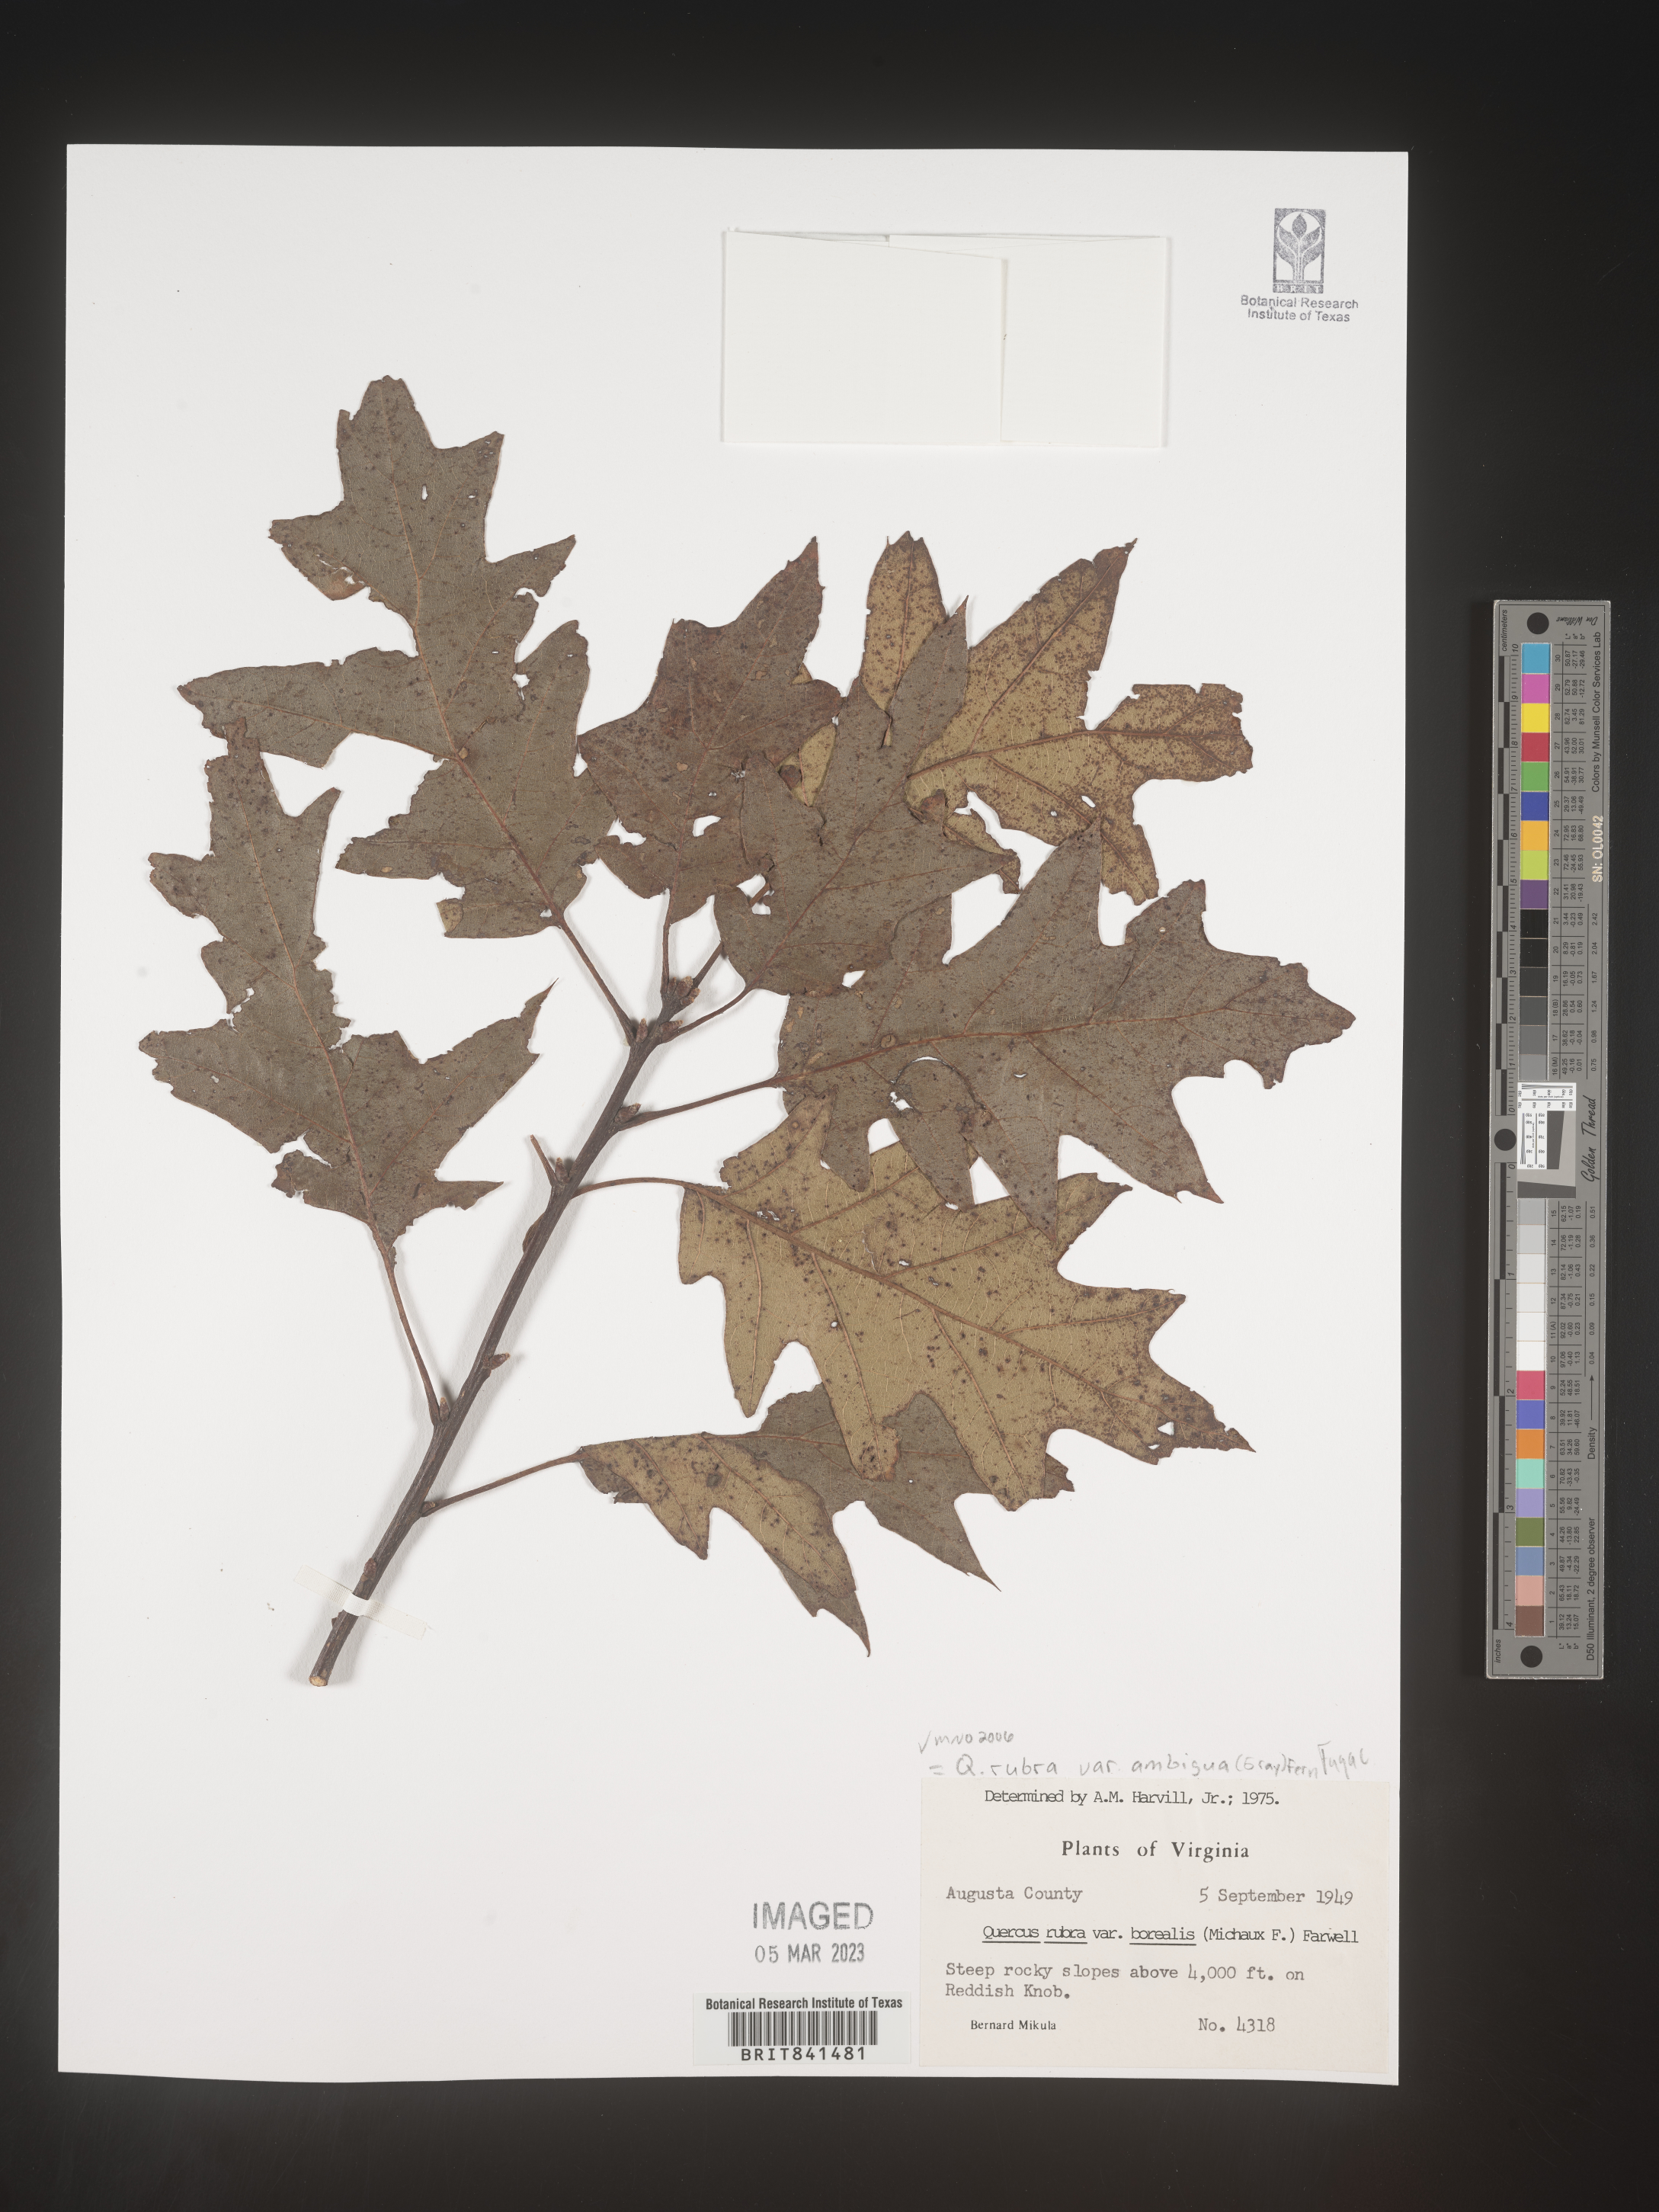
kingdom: Plantae
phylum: Tracheophyta
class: Magnoliopsida
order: Fagales
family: Fagaceae
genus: Quercus
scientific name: Quercus rubra
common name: Red oak
